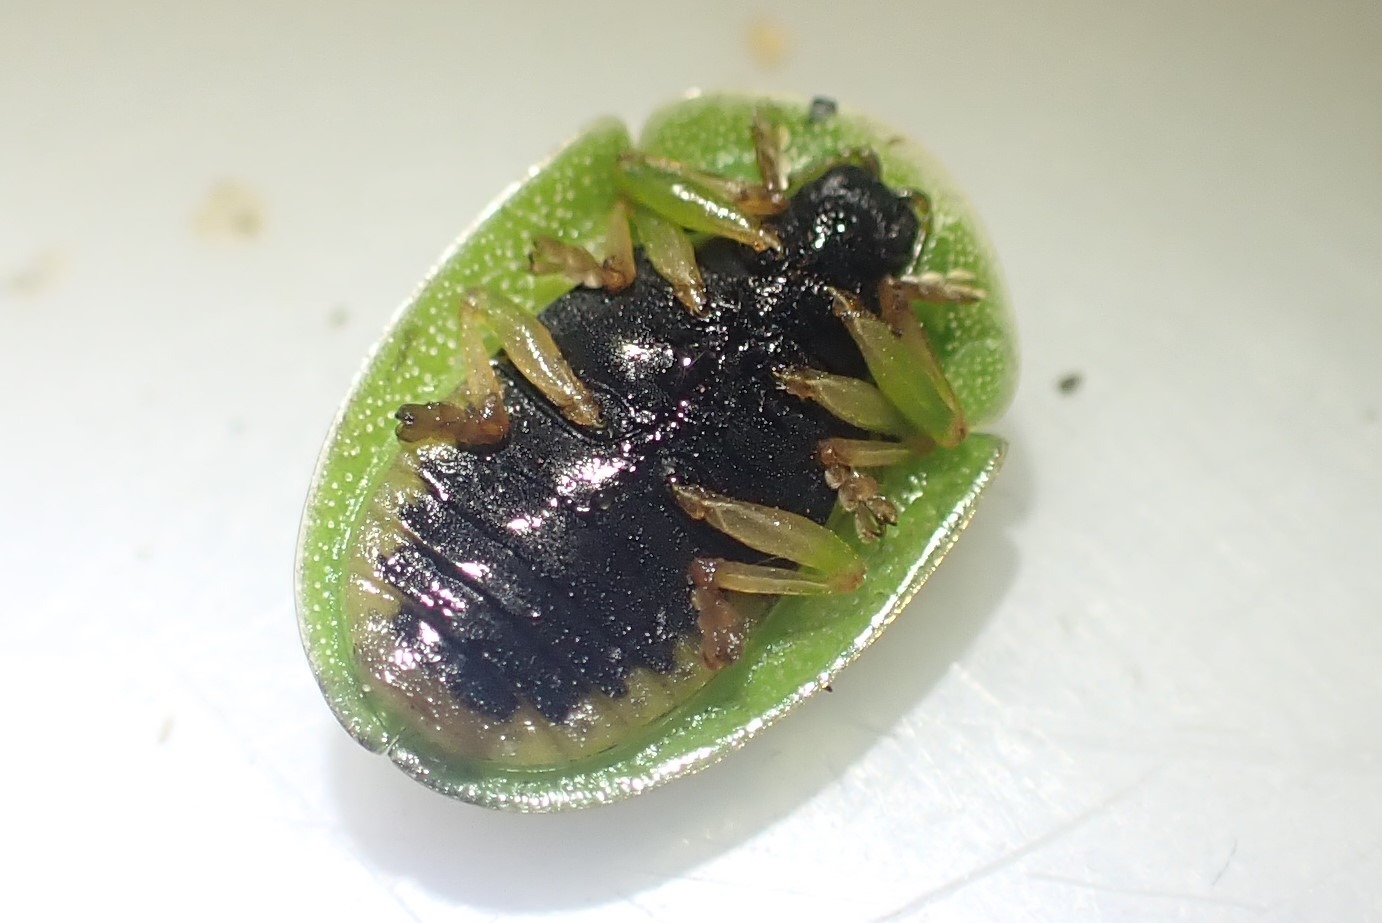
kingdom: Animalia
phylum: Arthropoda
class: Insecta
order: Coleoptera
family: Chrysomelidae
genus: Cassida
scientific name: Cassida viridis
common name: Stor skjoldbille
